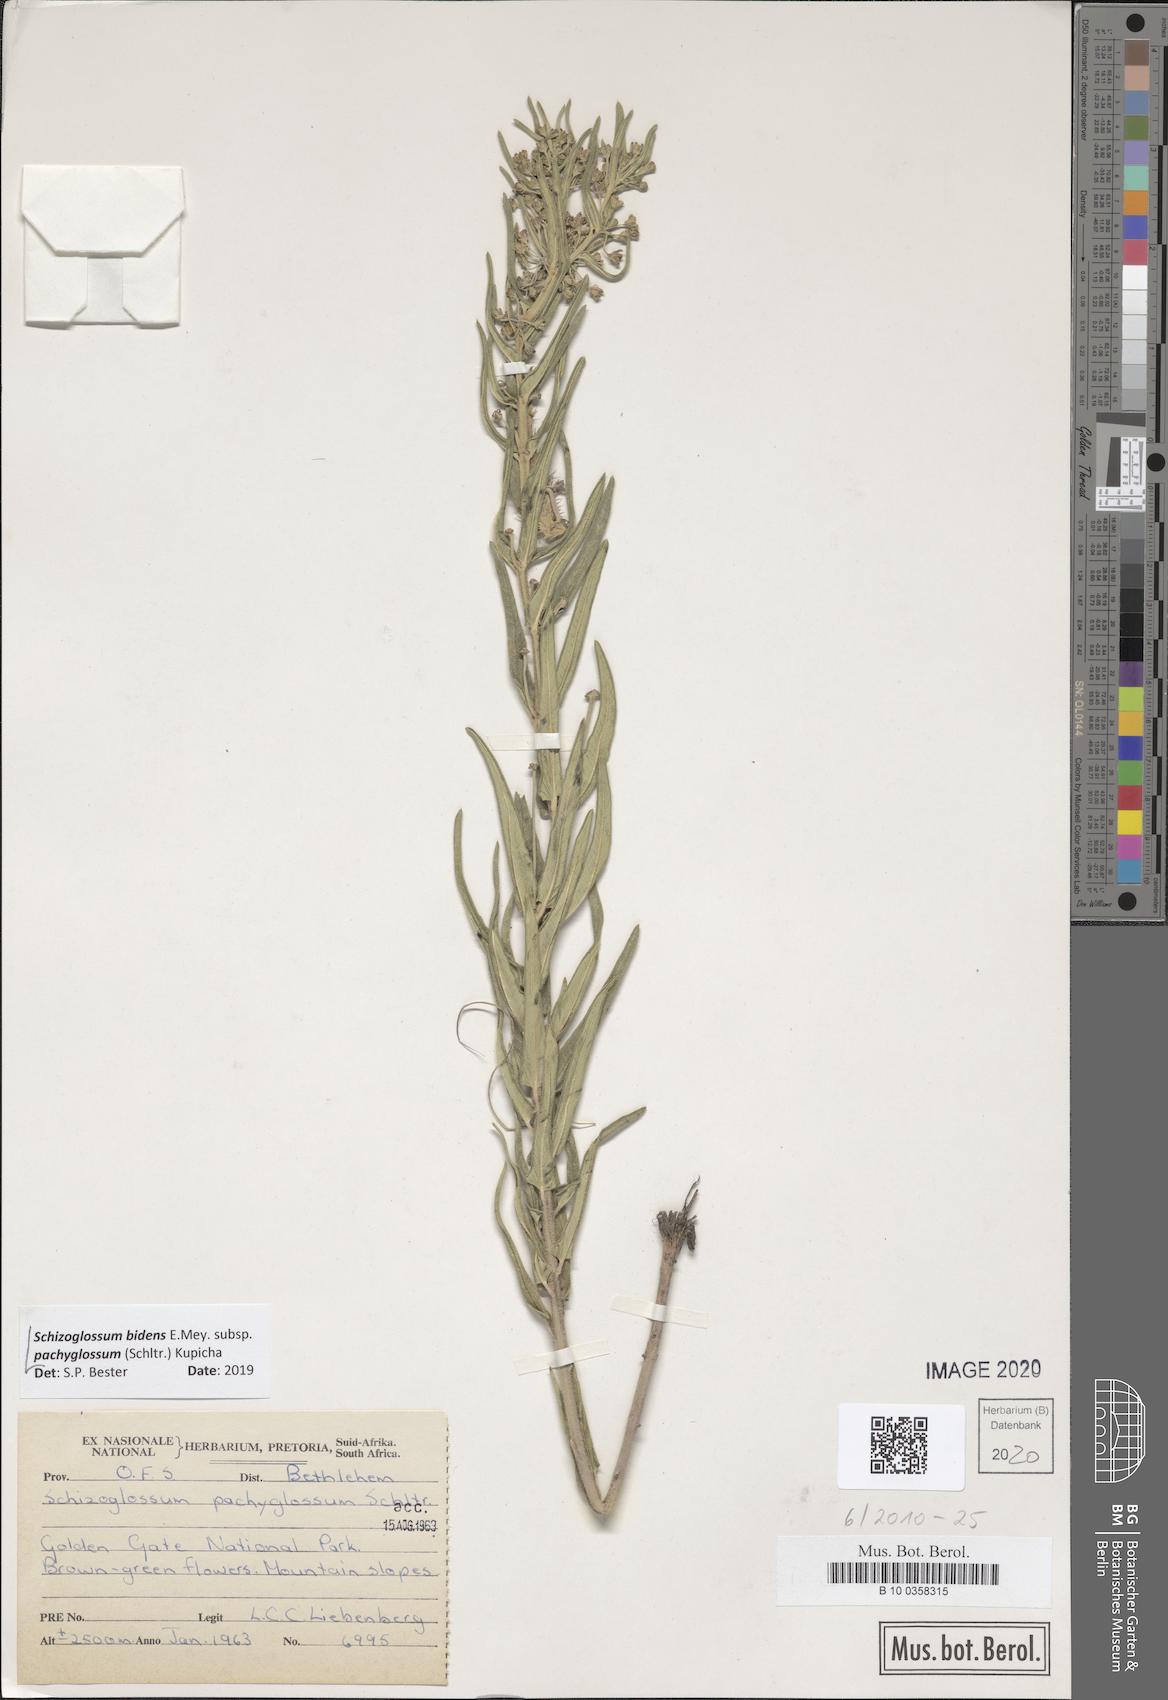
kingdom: Plantae
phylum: Tracheophyta
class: Magnoliopsida
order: Gentianales
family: Apocynaceae
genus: Schizoglossum
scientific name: Schizoglossum bidens
